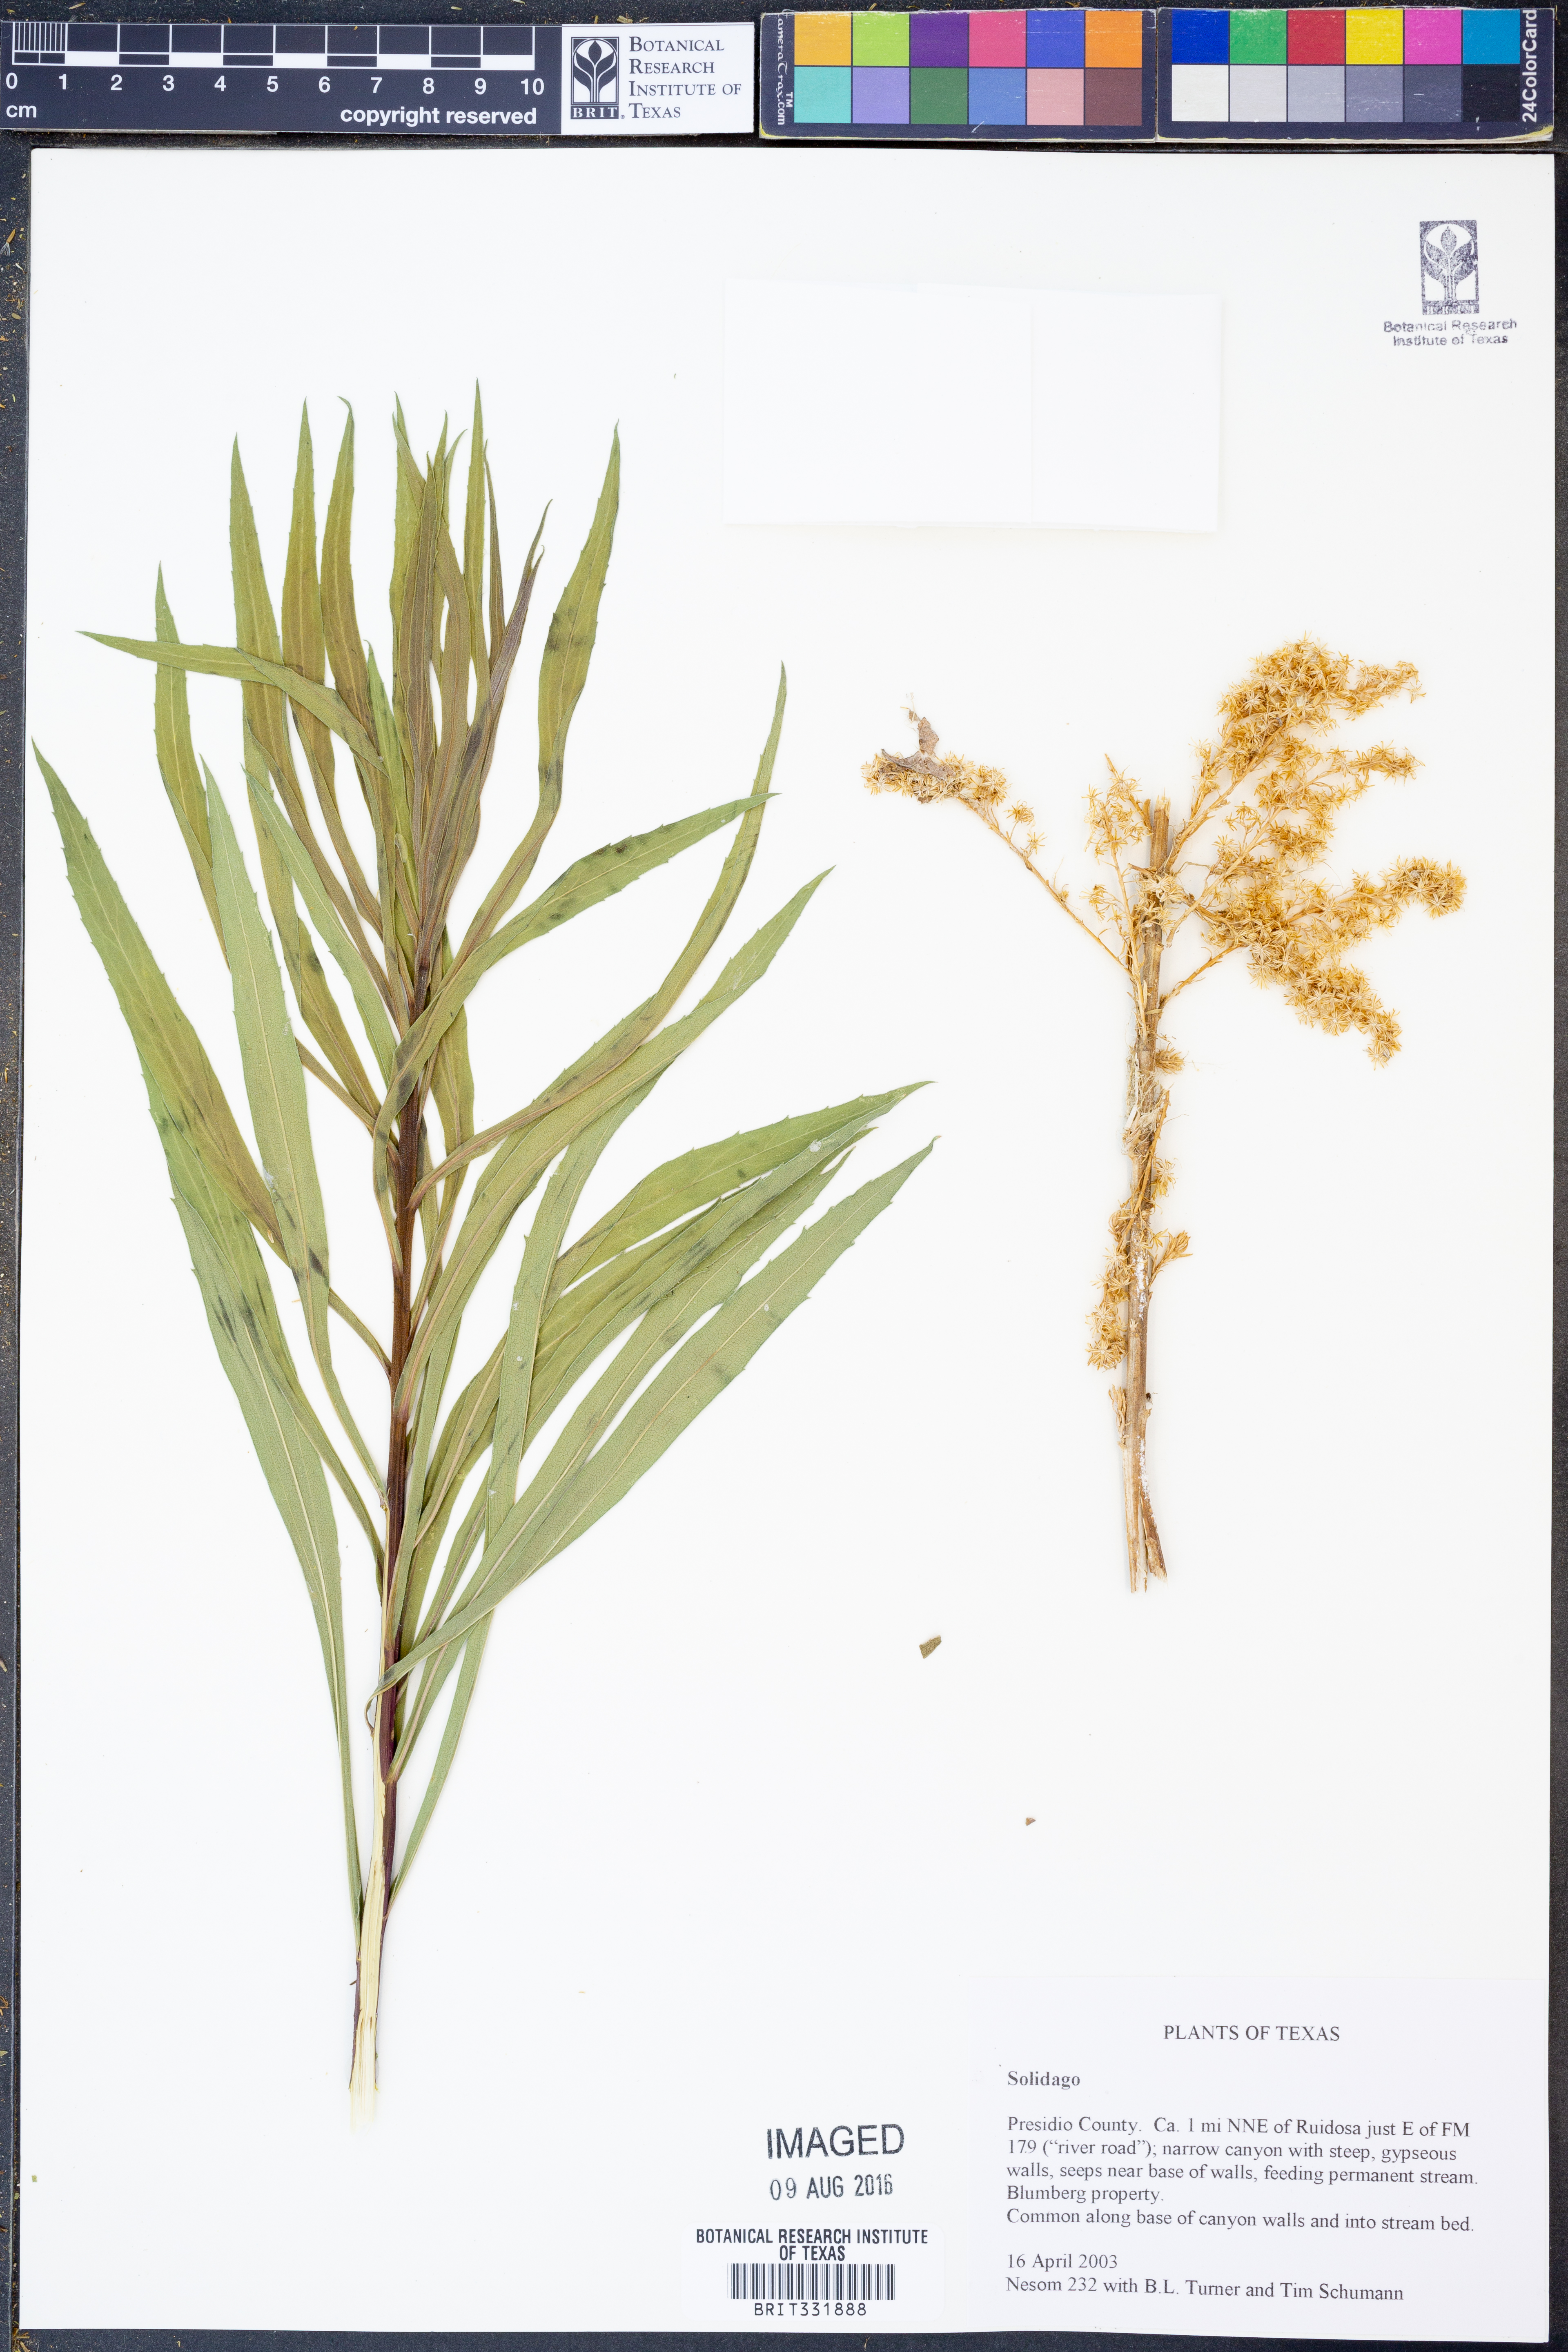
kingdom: Plantae
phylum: Tracheophyta
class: Magnoliopsida
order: Asterales
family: Asteraceae
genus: Solidago
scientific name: Solidago
